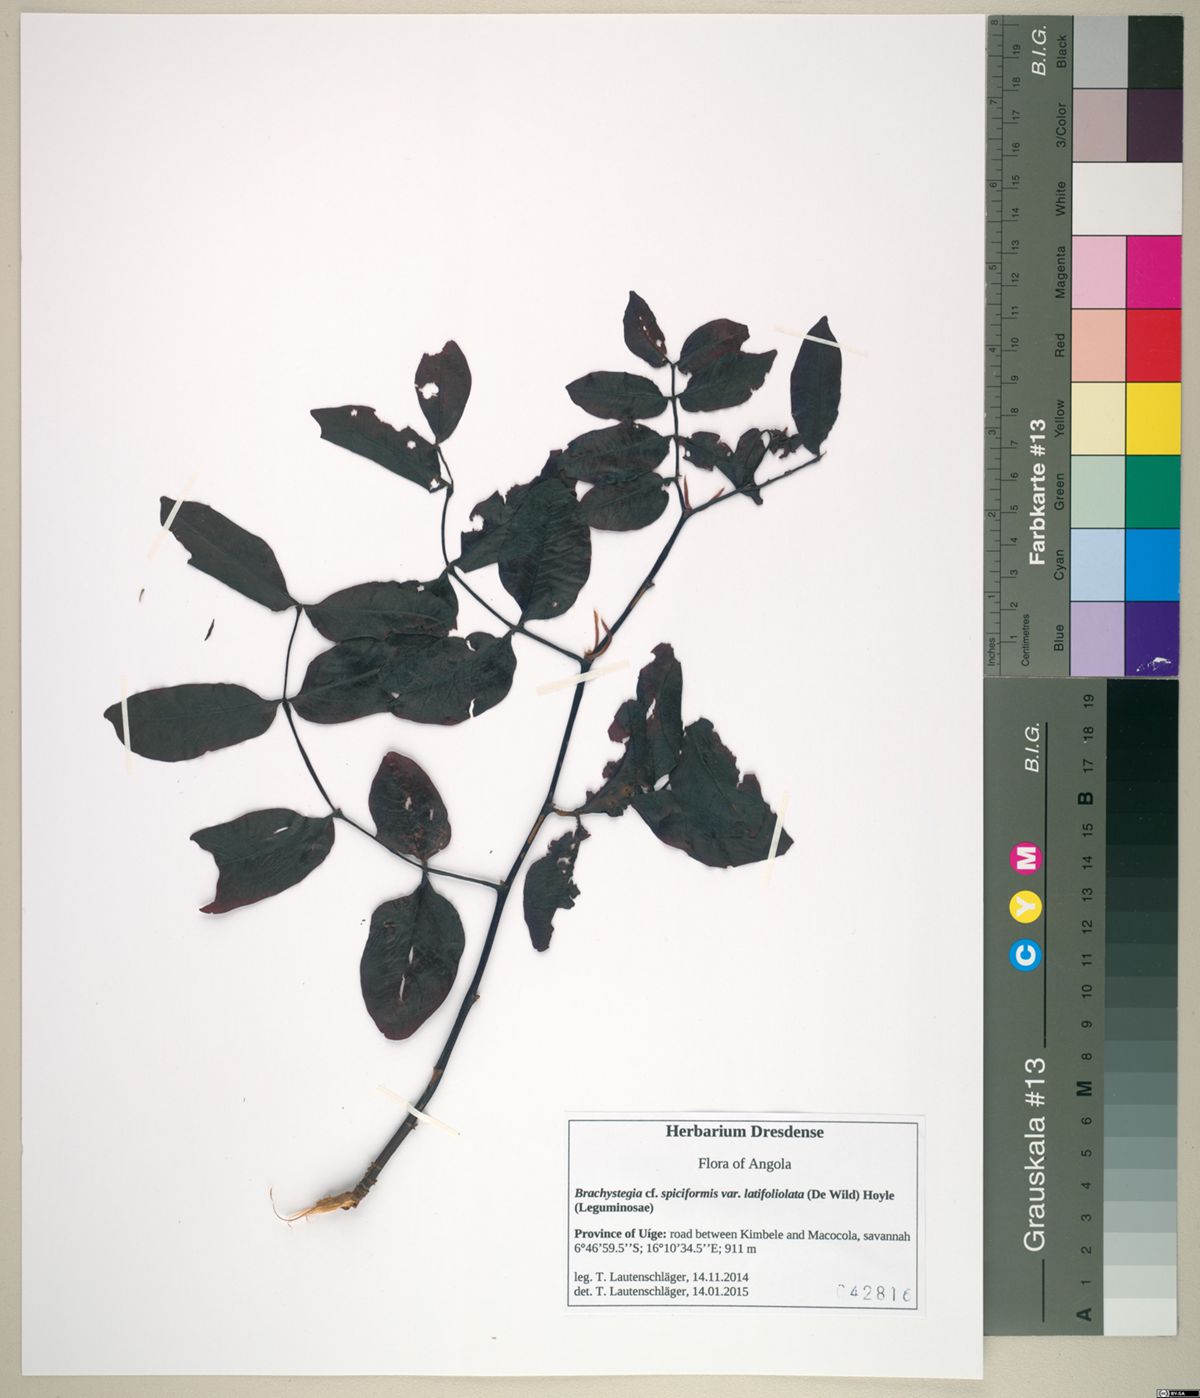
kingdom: Plantae
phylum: Tracheophyta
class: Magnoliopsida
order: Fabales
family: Fabaceae
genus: Brachystegia
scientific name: Brachystegia spiciformis
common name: Zebrawood
